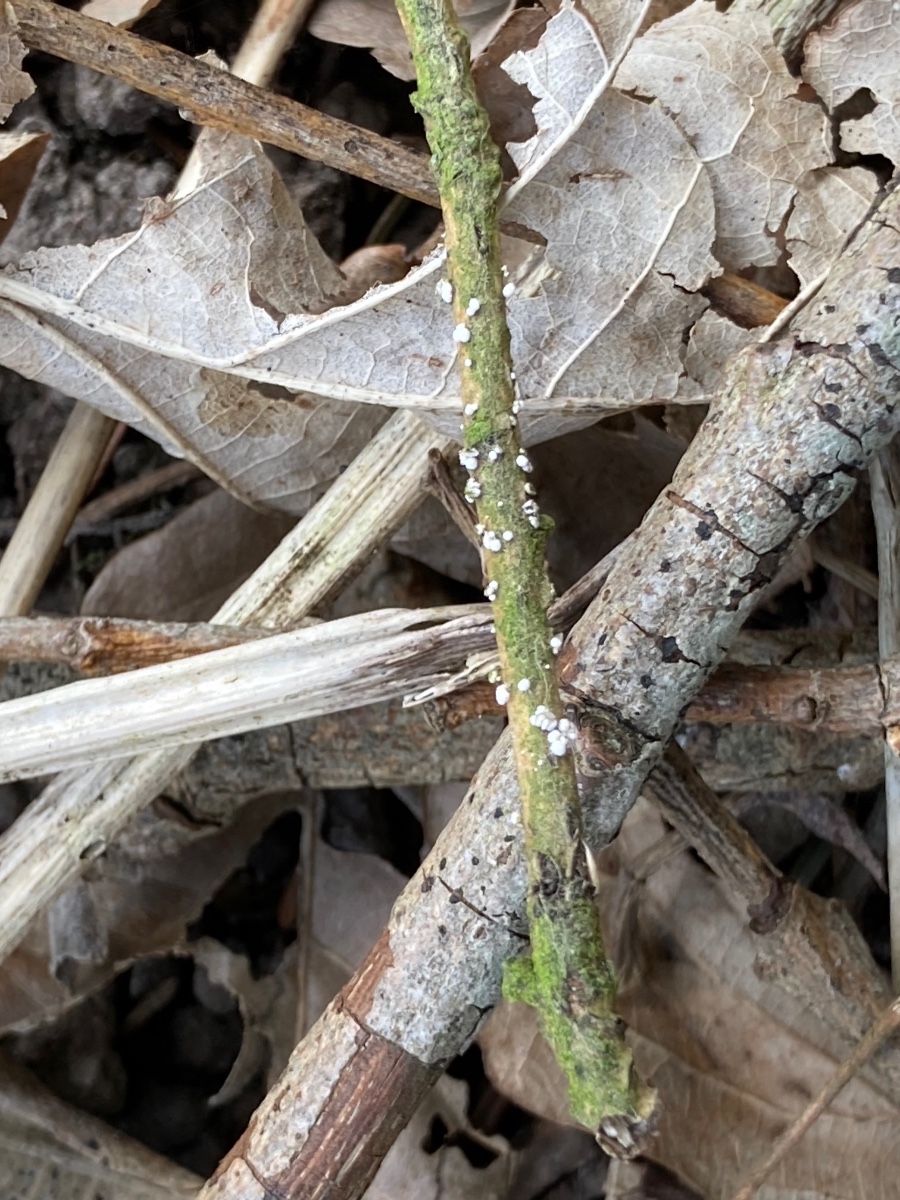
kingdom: Fungi
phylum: Ascomycota
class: Leotiomycetes
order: Helotiales
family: Lachnaceae
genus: Capitotricha
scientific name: Capitotricha bicolor
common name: prægtig frynseskive
